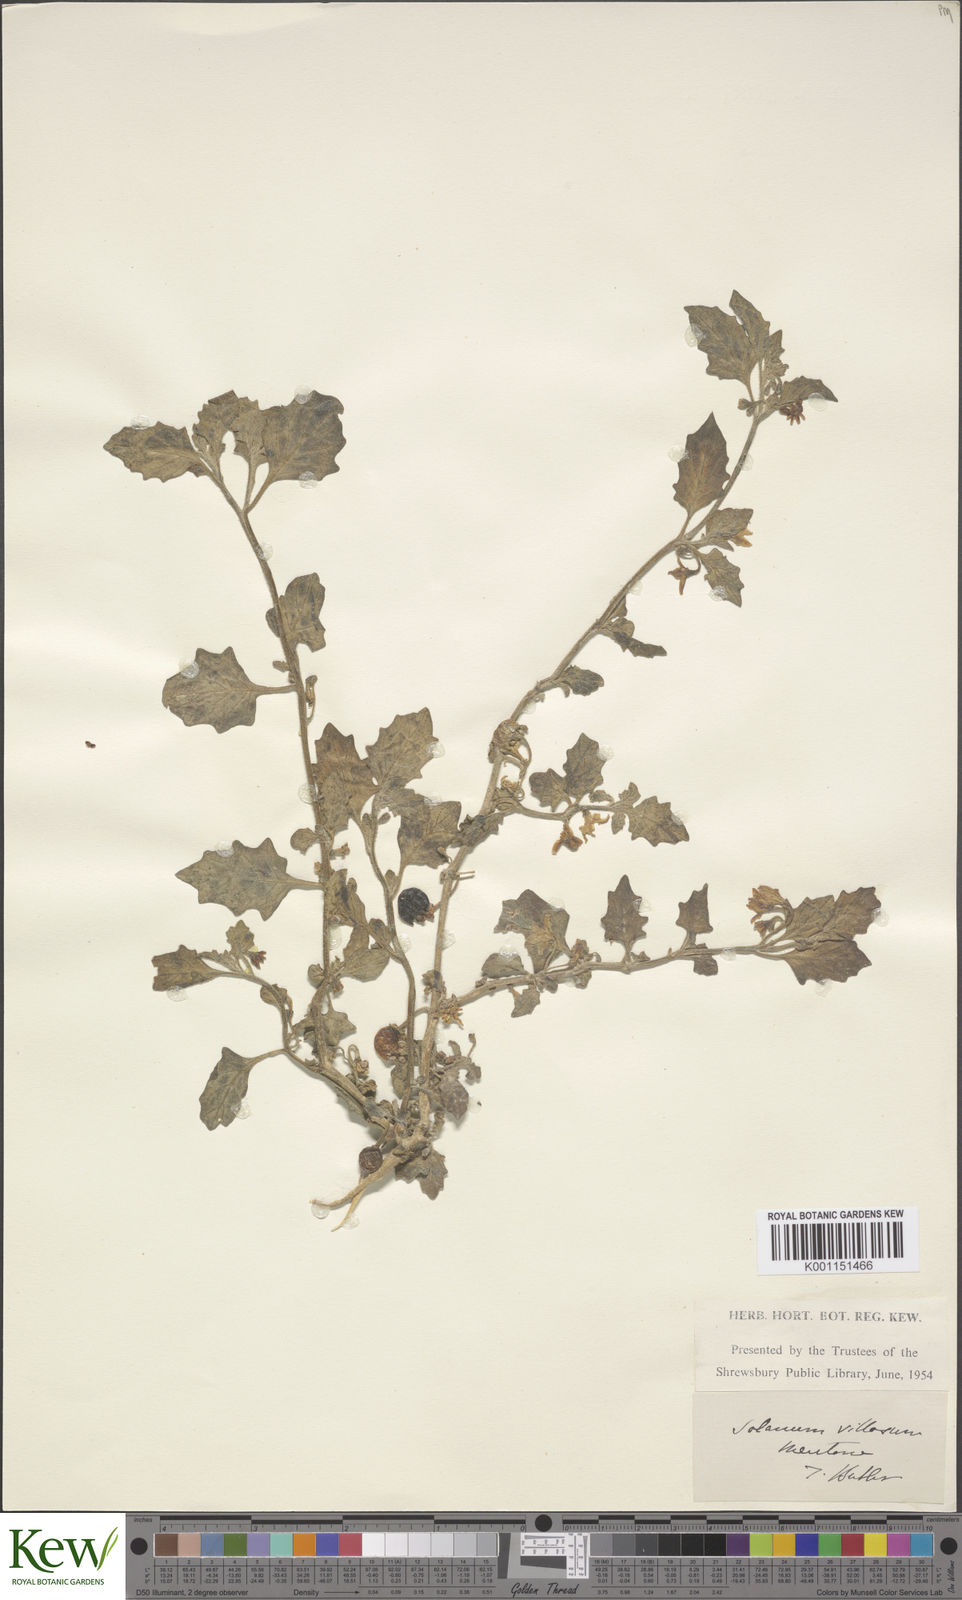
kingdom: Plantae
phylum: Tracheophyta
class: Magnoliopsida
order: Solanales
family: Solanaceae
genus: Solanum
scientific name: Solanum villosum
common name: Red nightshade
